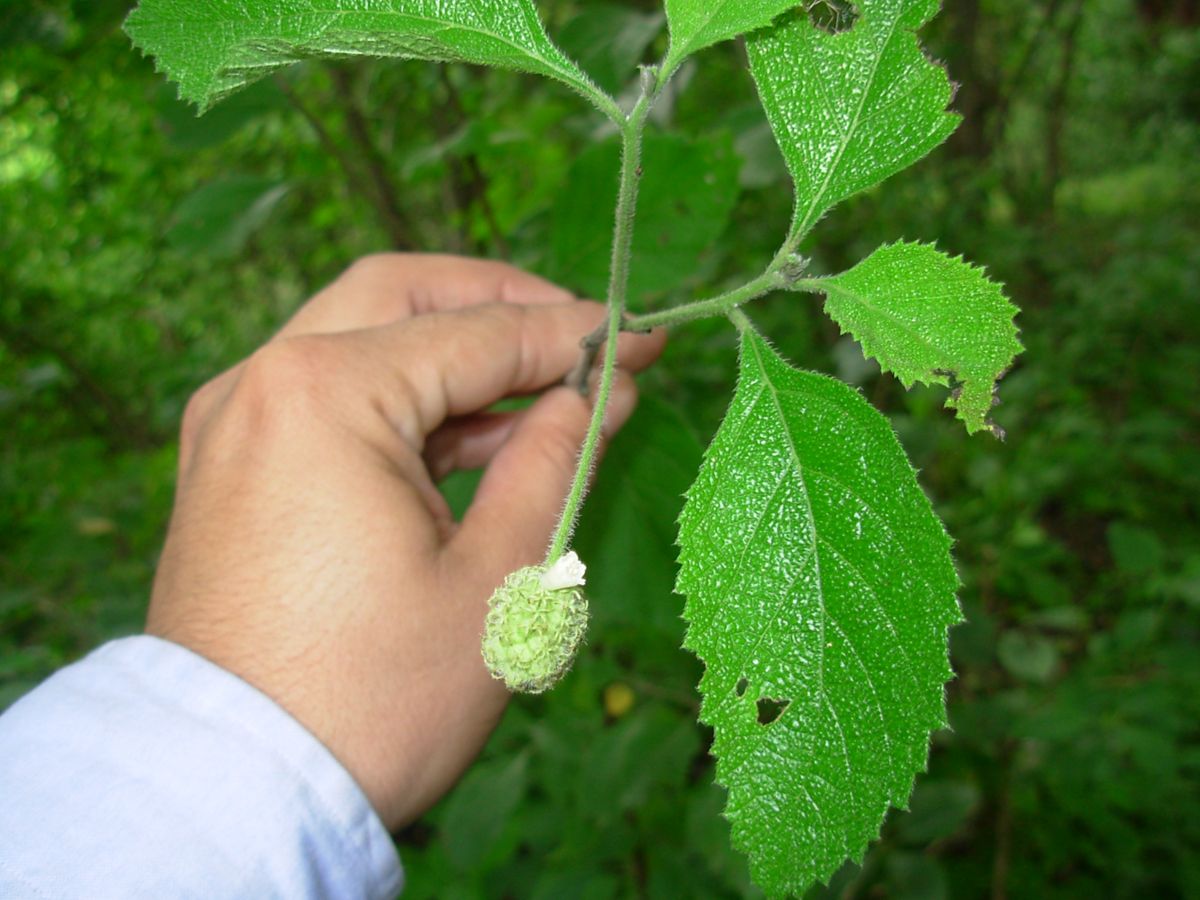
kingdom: Plantae
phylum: Tracheophyta
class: Magnoliopsida
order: Boraginales
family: Cordiaceae
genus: Varronia
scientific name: Varronia bullata
